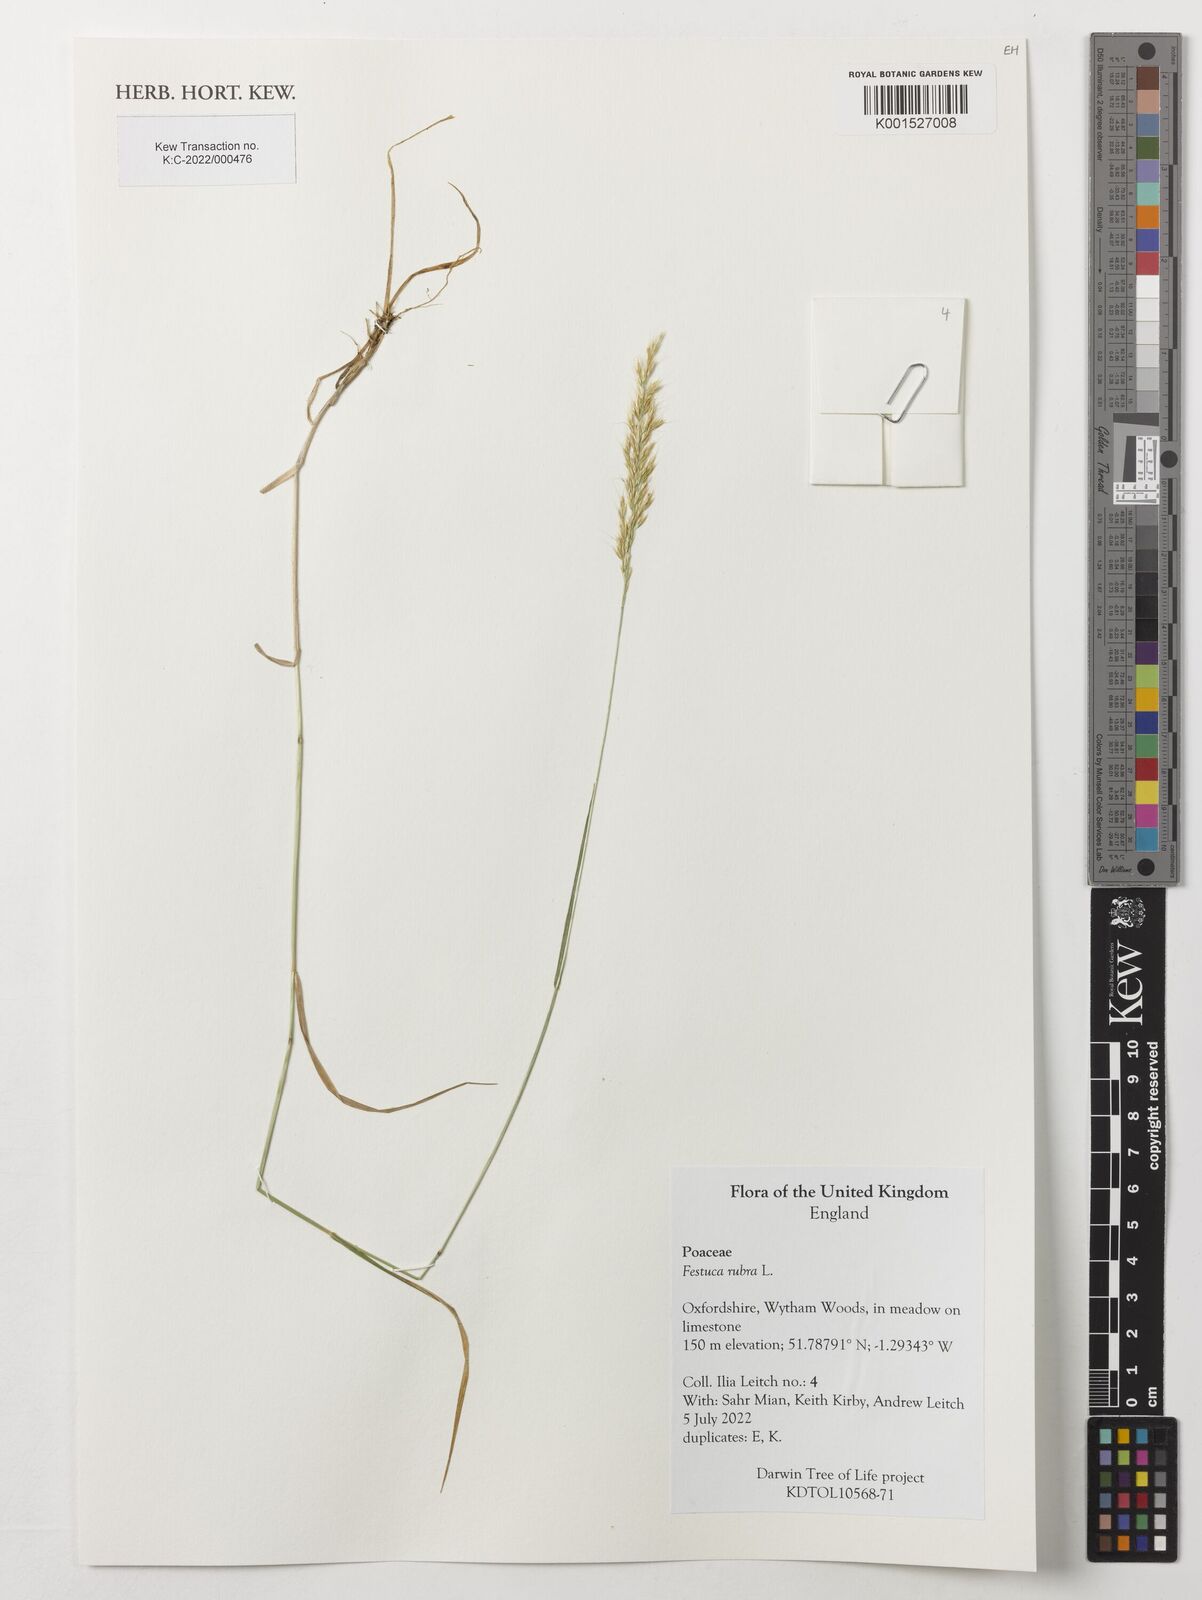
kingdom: Plantae
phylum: Tracheophyta
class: Liliopsida
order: Poales
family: Poaceae
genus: Festuca
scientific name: Festuca rubra
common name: Red fescue
